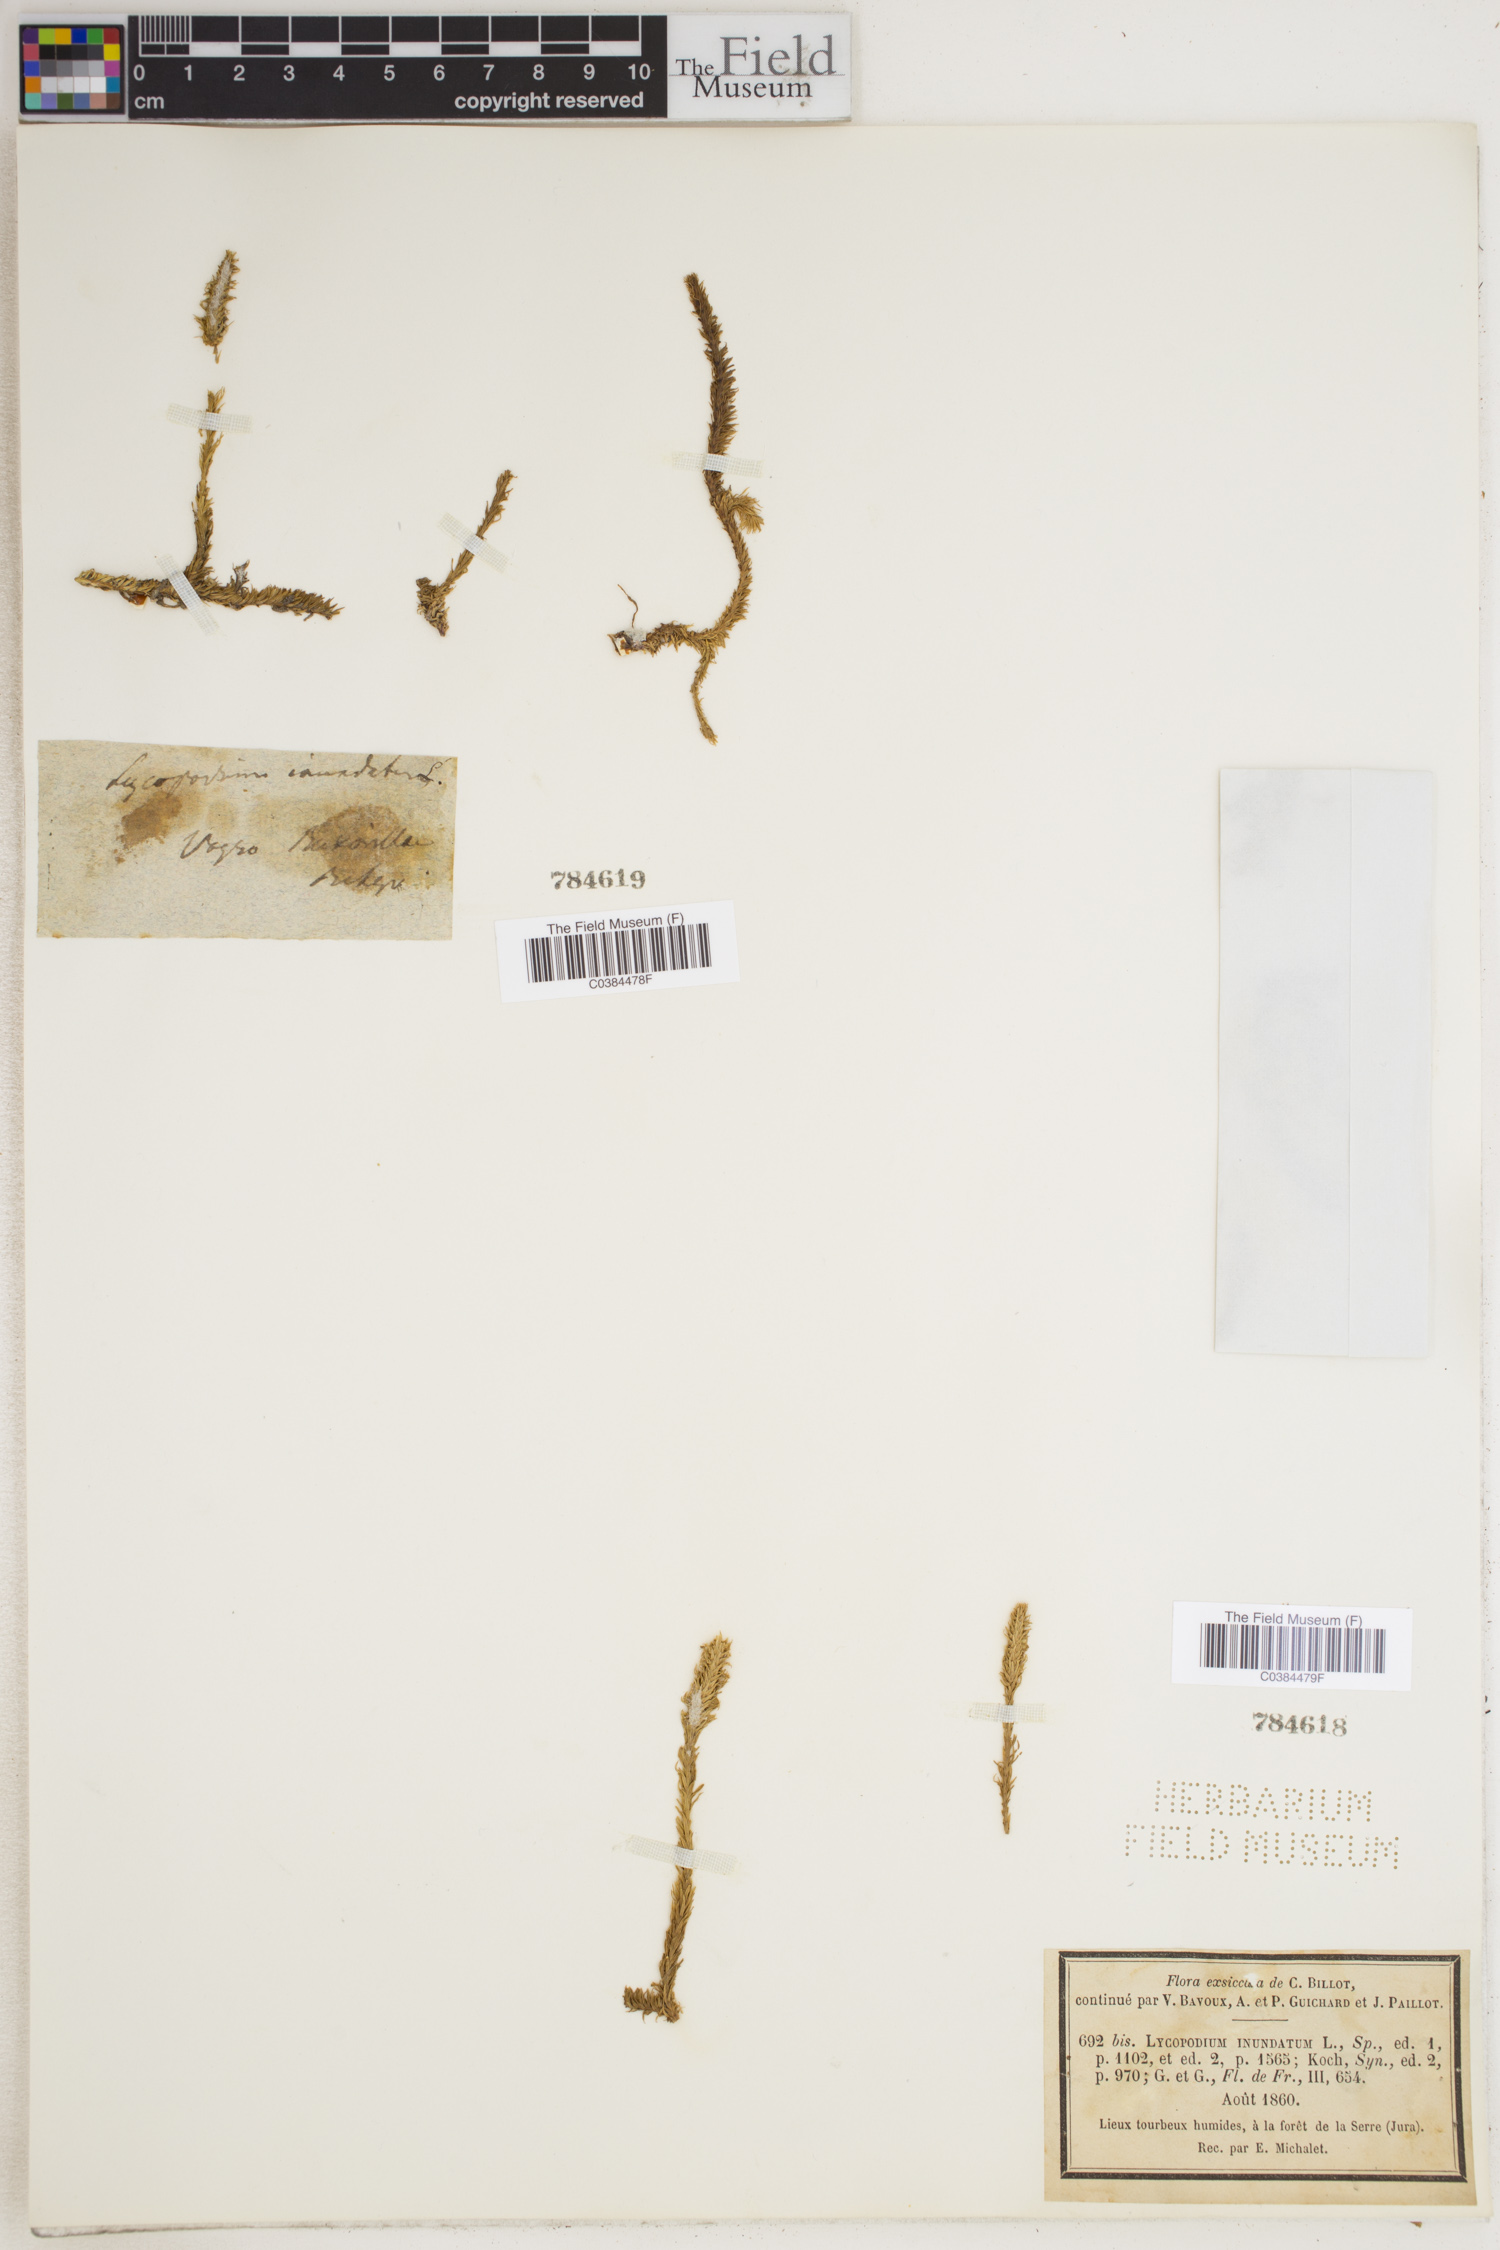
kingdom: Plantae
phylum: Tracheophyta
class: Lycopodiopsida
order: Lycopodiales
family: Lycopodiaceae
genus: Lycopodiella
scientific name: Lycopodiella inundata
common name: Marsh clubmoss
